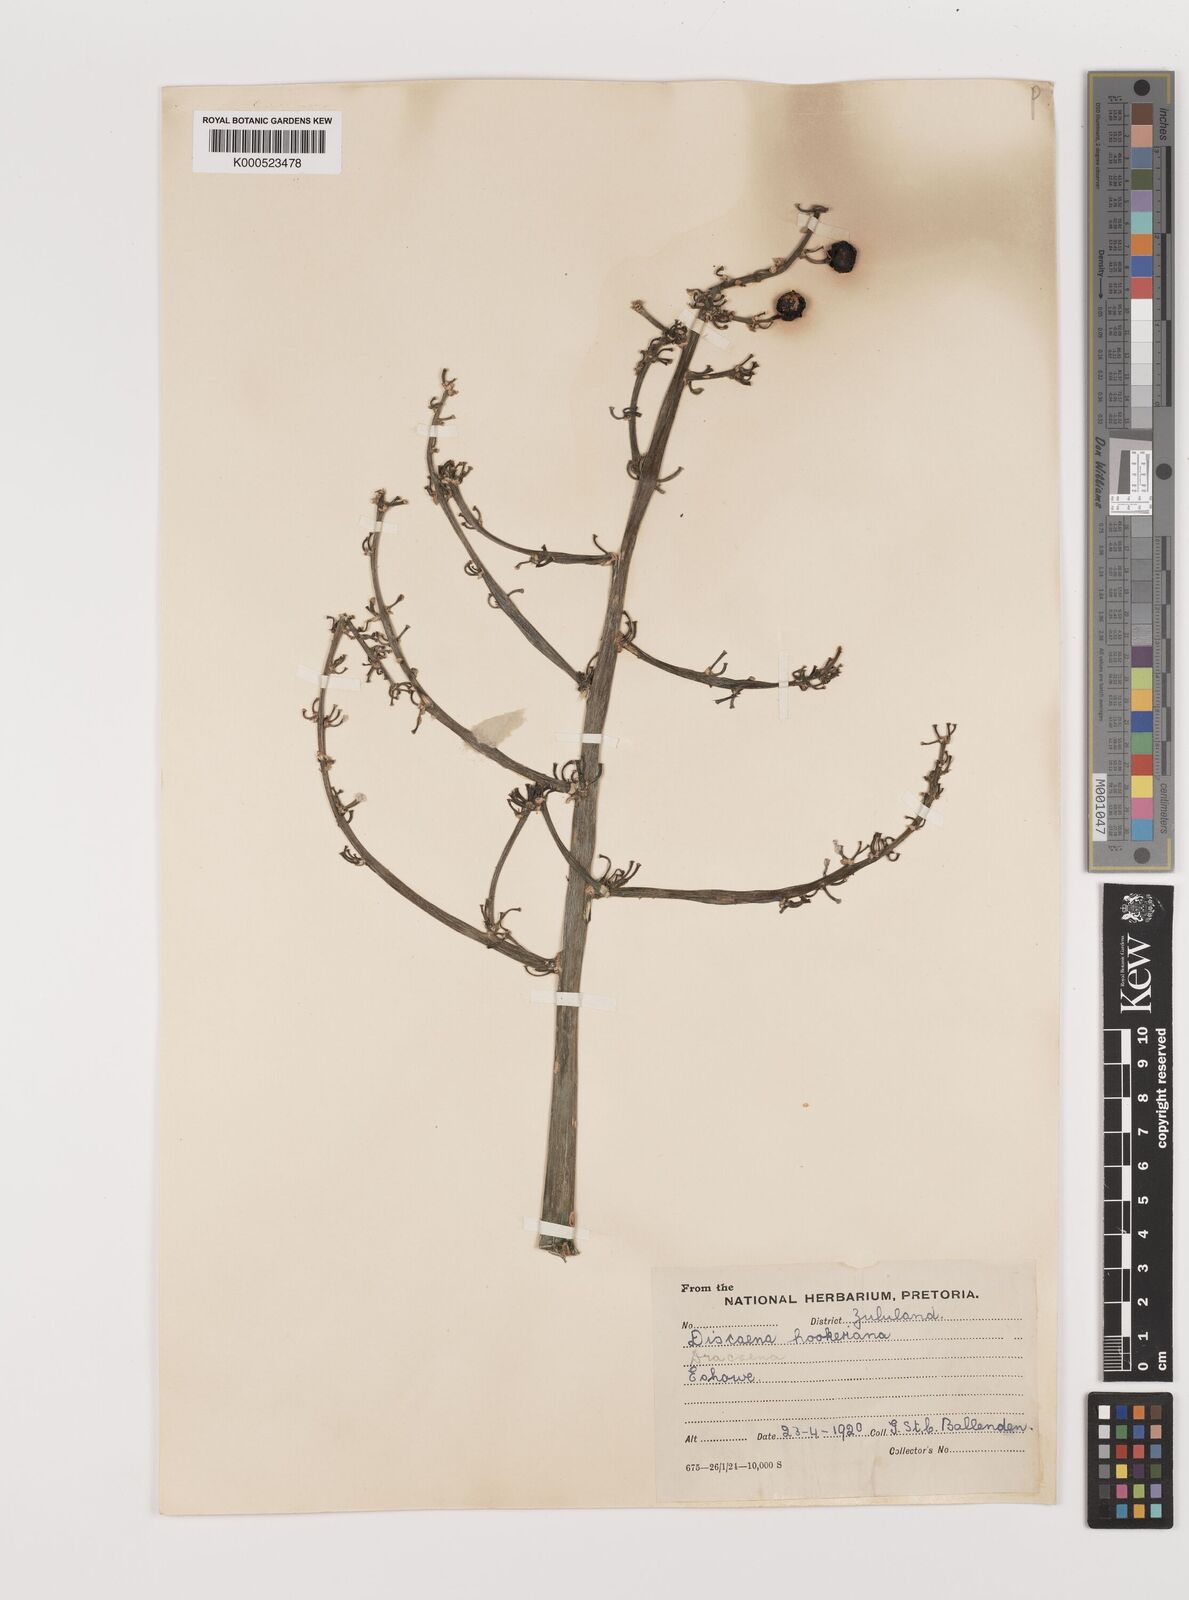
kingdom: Plantae
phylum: Tracheophyta
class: Liliopsida
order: Asparagales
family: Asparagaceae
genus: Dracaena
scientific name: Dracaena aletriformis
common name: Large-leaved dragon tree
